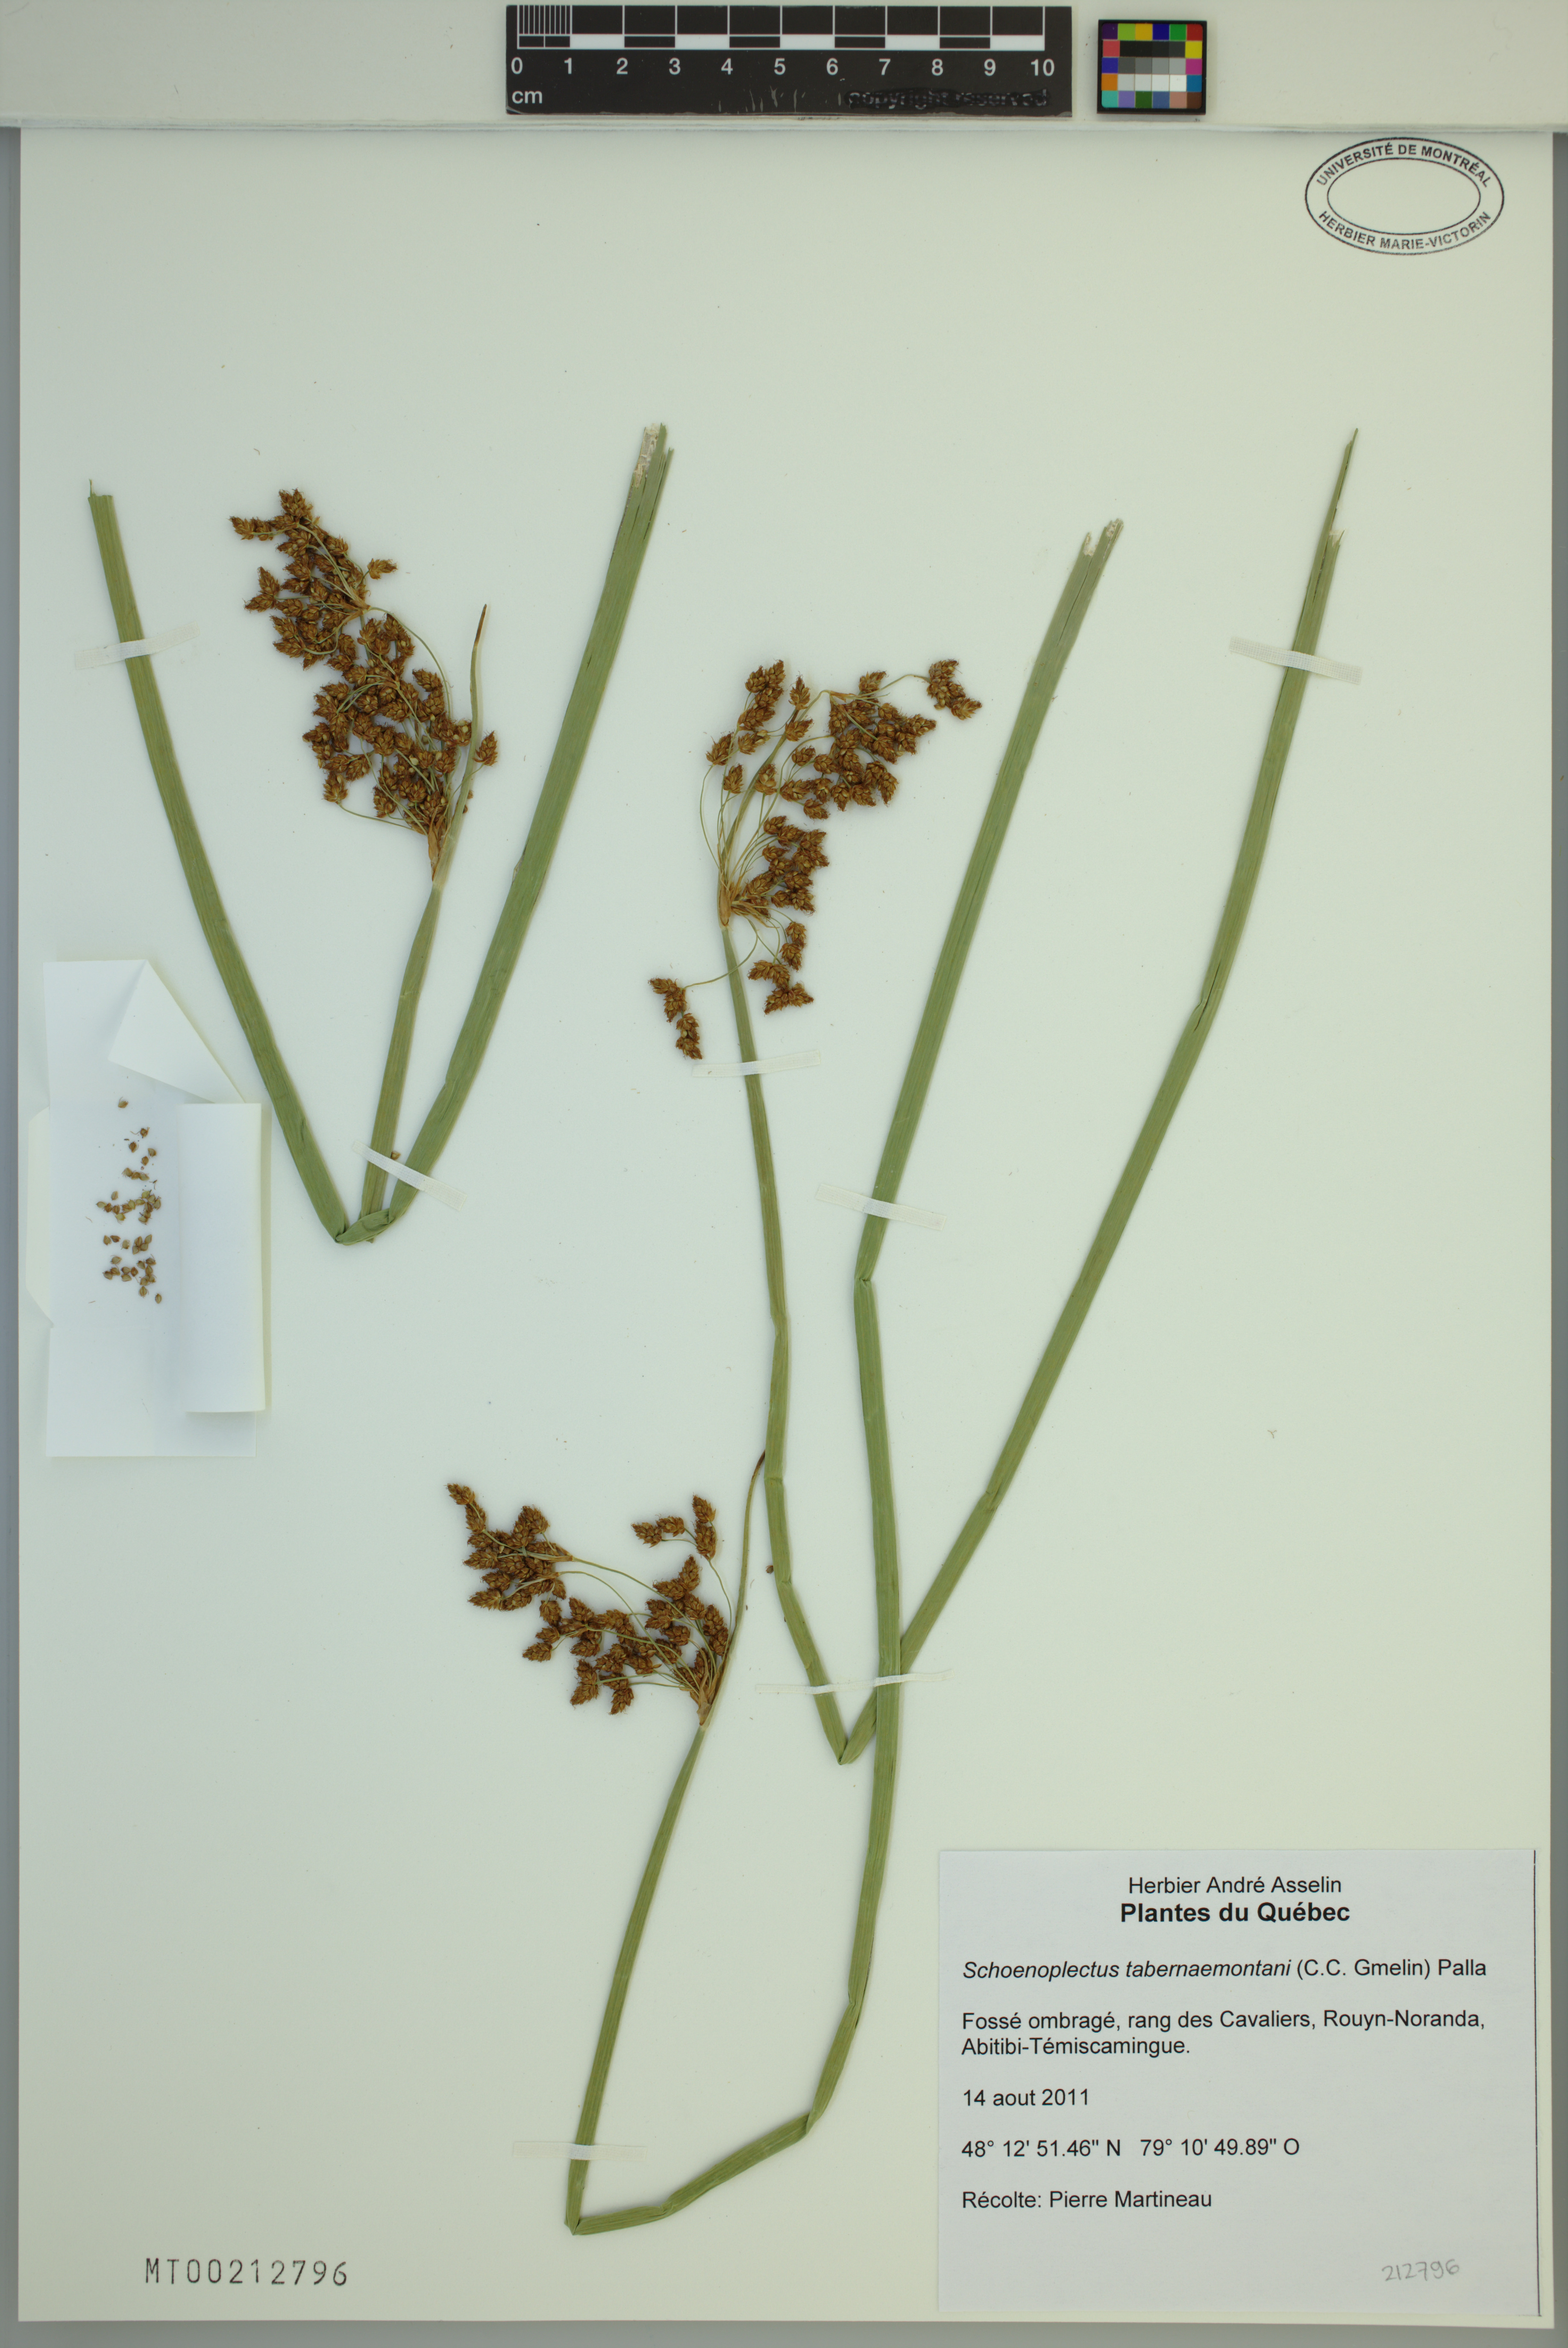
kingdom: Plantae
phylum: Tracheophyta
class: Liliopsida
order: Poales
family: Cyperaceae
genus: Schoenoplectus
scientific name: Schoenoplectus tabernaemontani
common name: Grey club-rush
